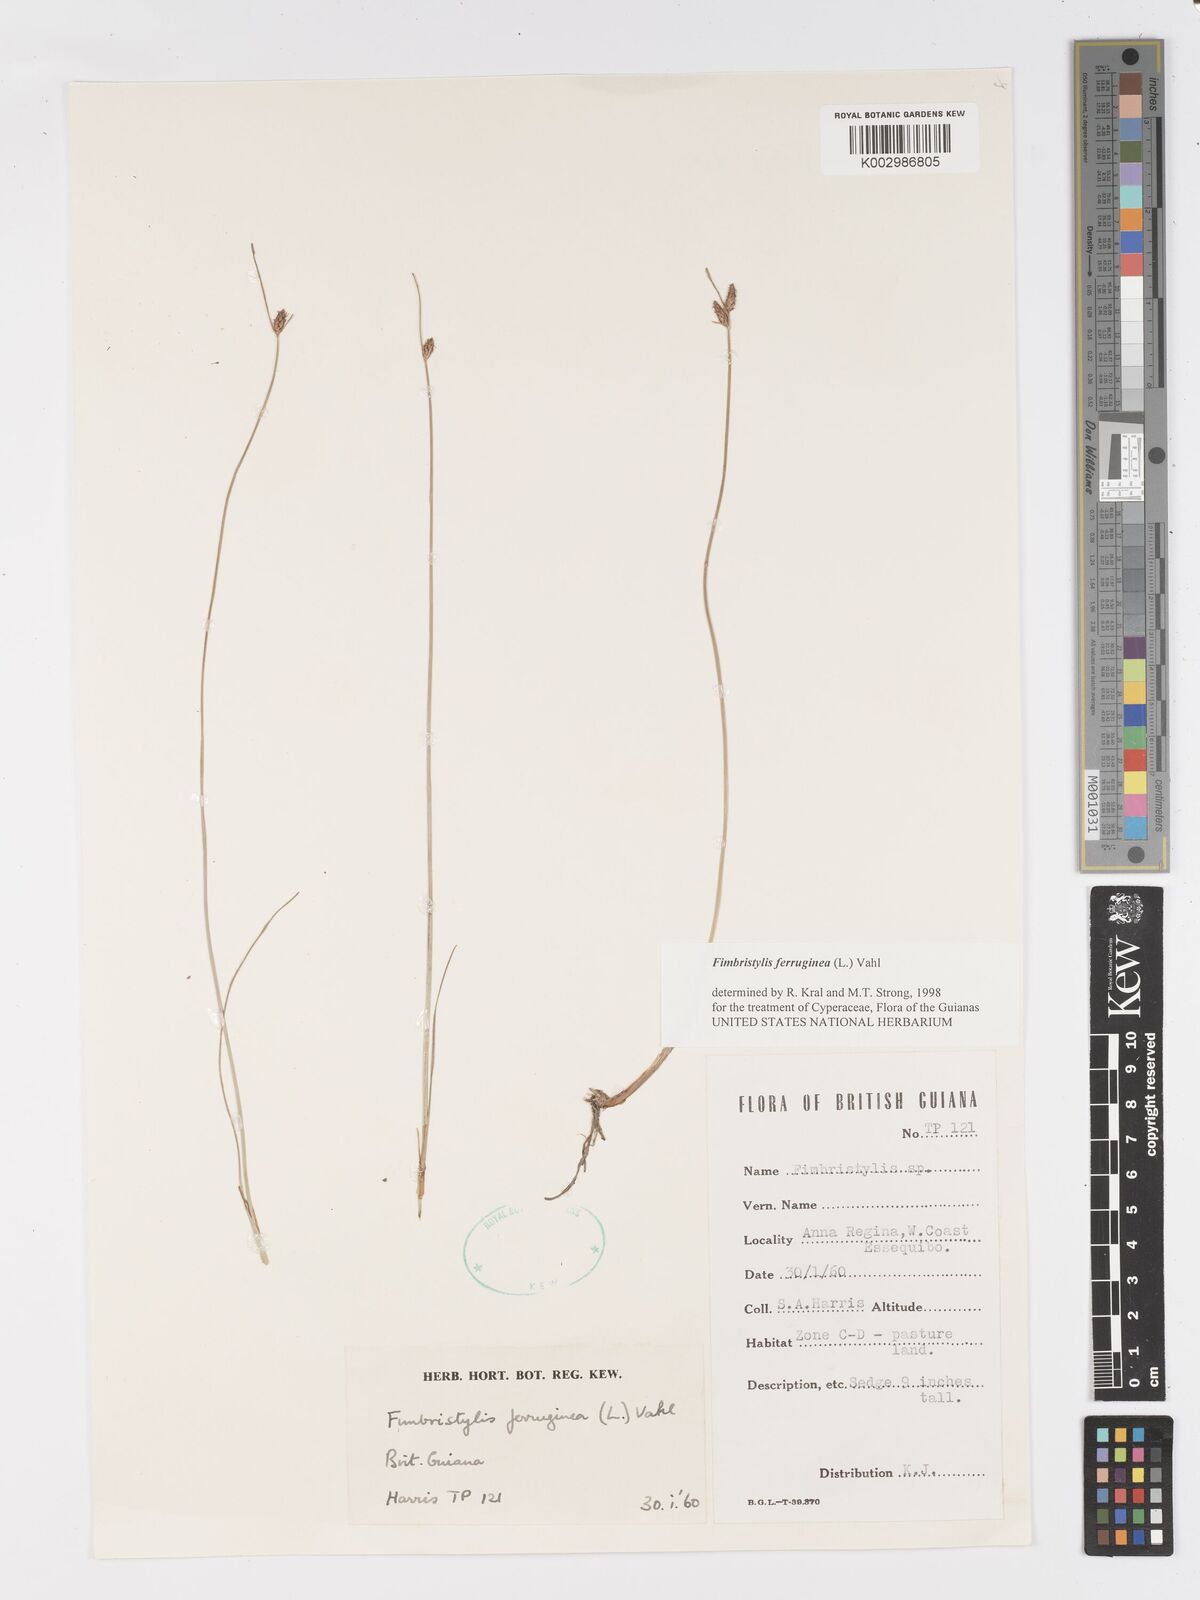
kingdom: Plantae
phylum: Tracheophyta
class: Liliopsida
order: Poales
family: Cyperaceae
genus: Fimbristylis
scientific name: Fimbristylis ferruginea
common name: West indian fimbry
